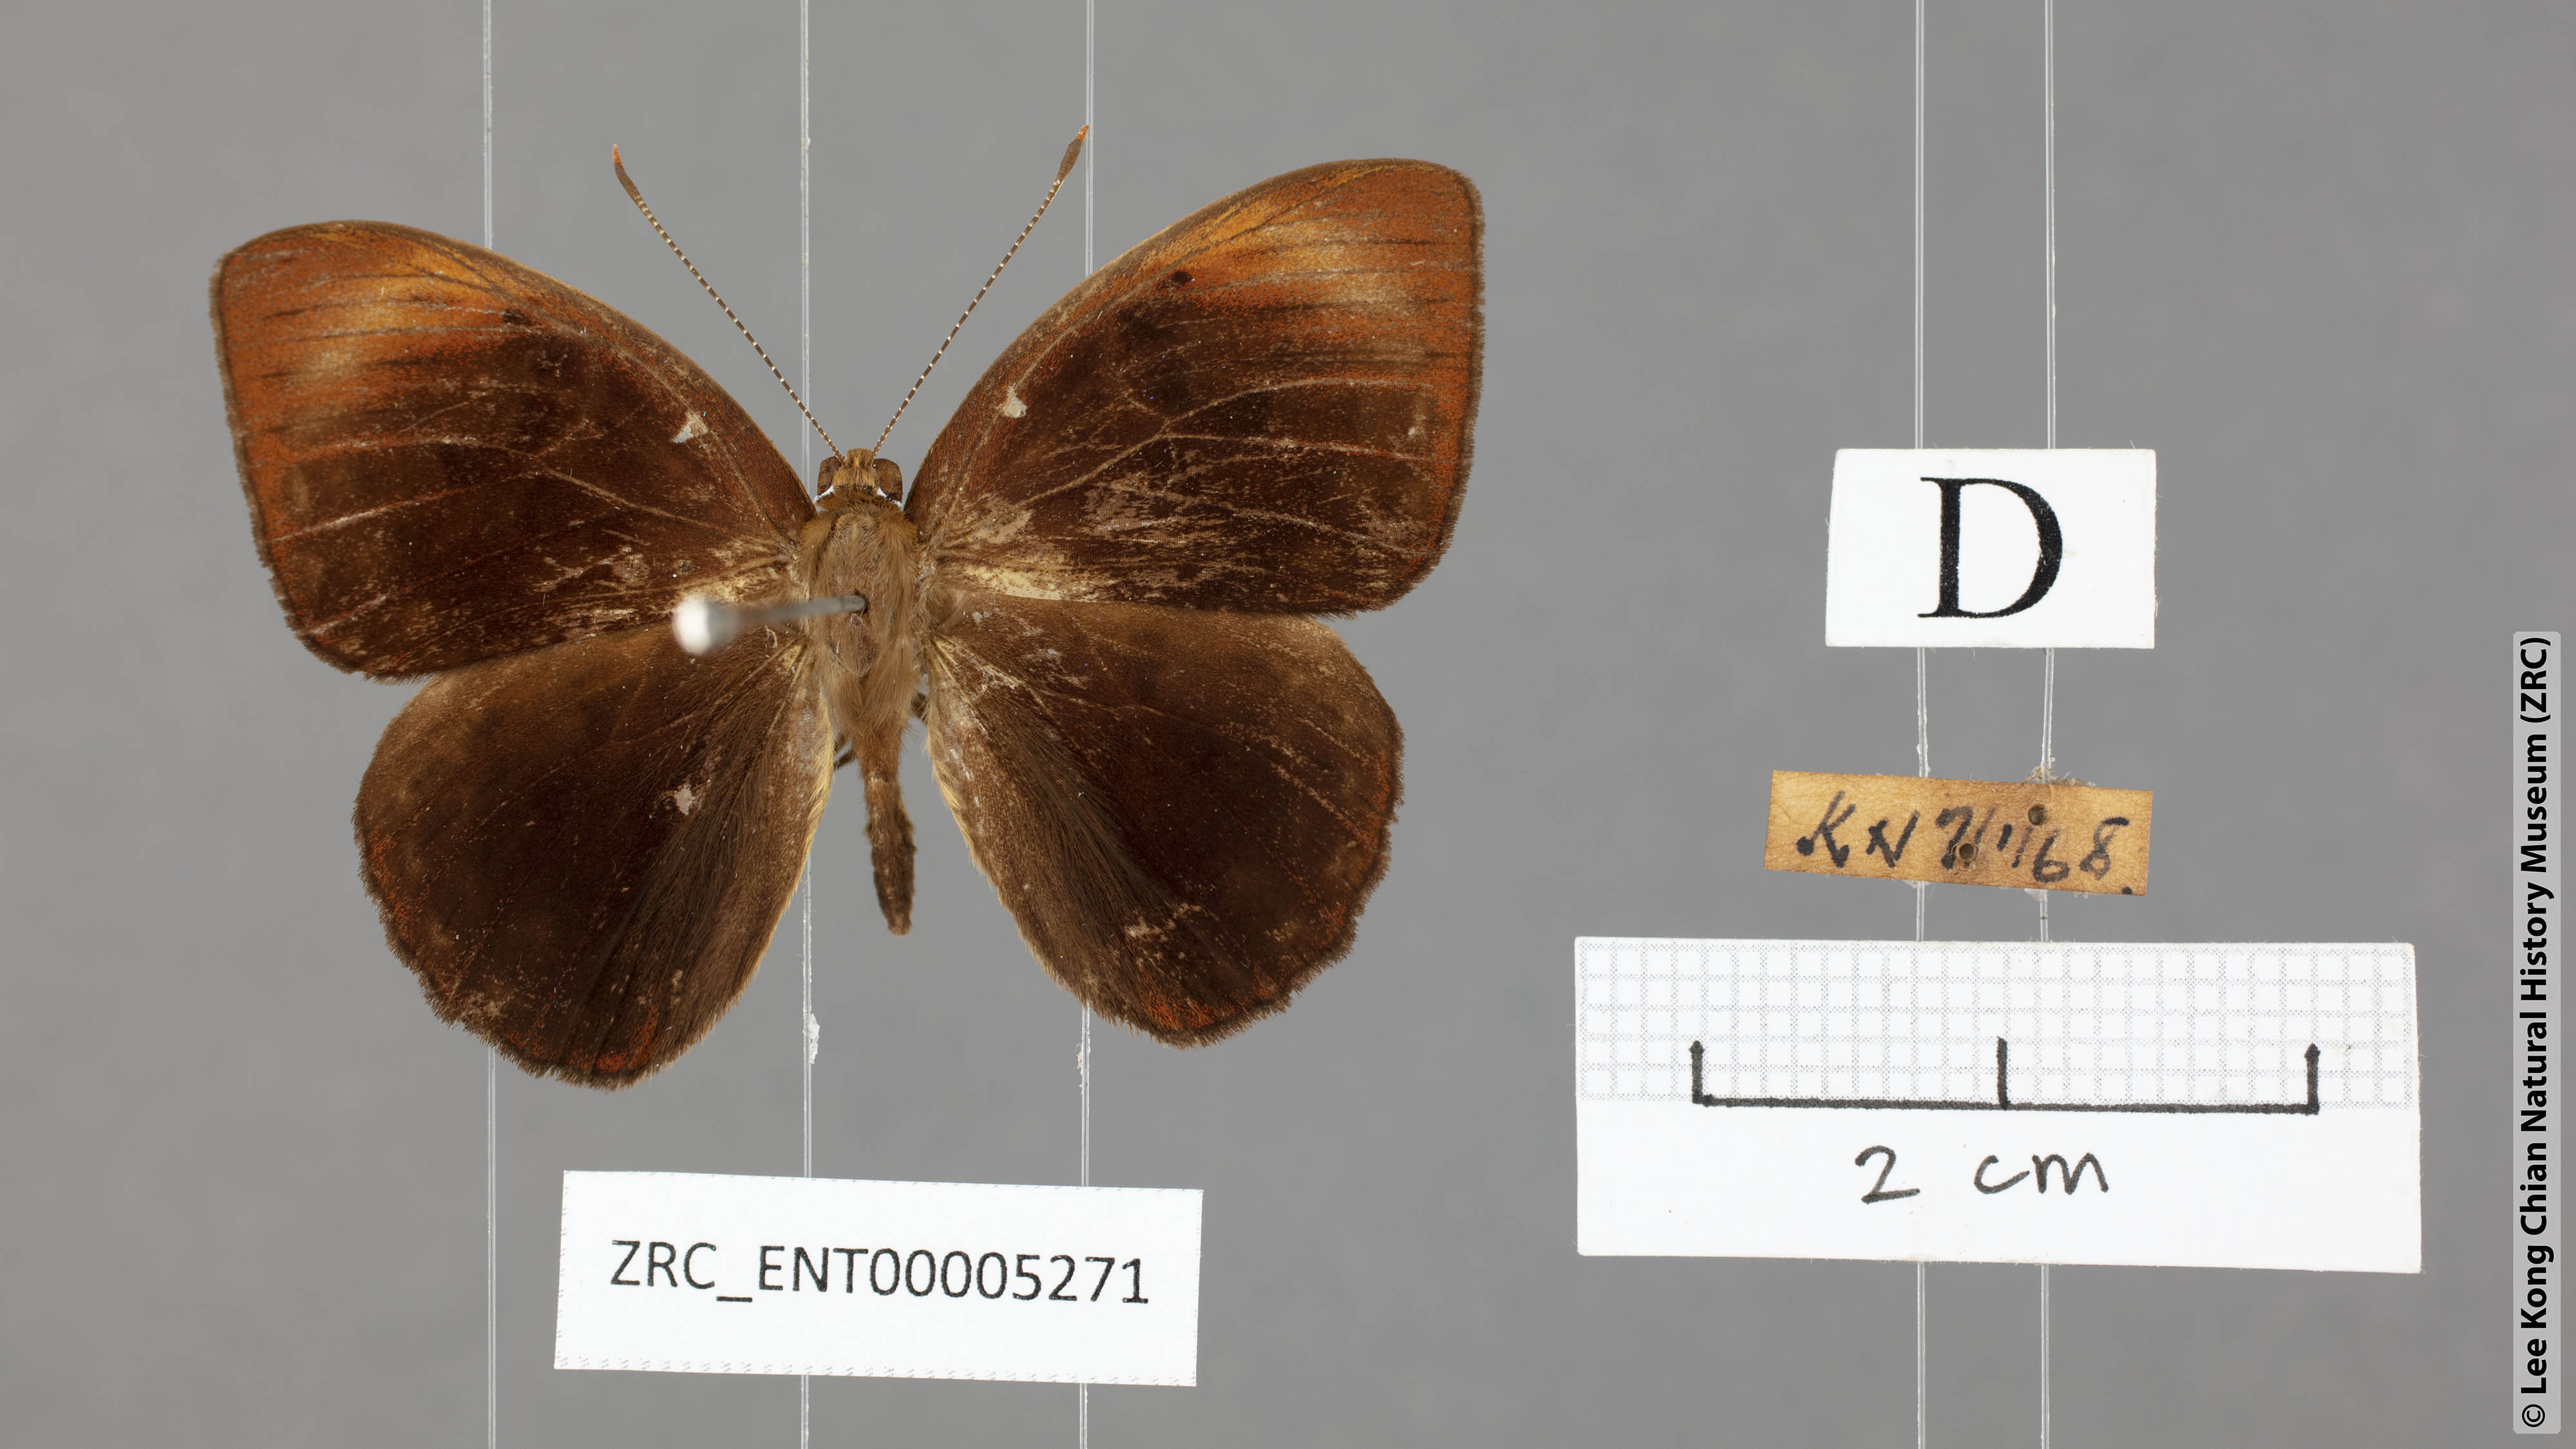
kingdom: Animalia
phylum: Arthropoda
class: Insecta
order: Lepidoptera
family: Erebidae
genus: Dysschema
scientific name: Dysschema
